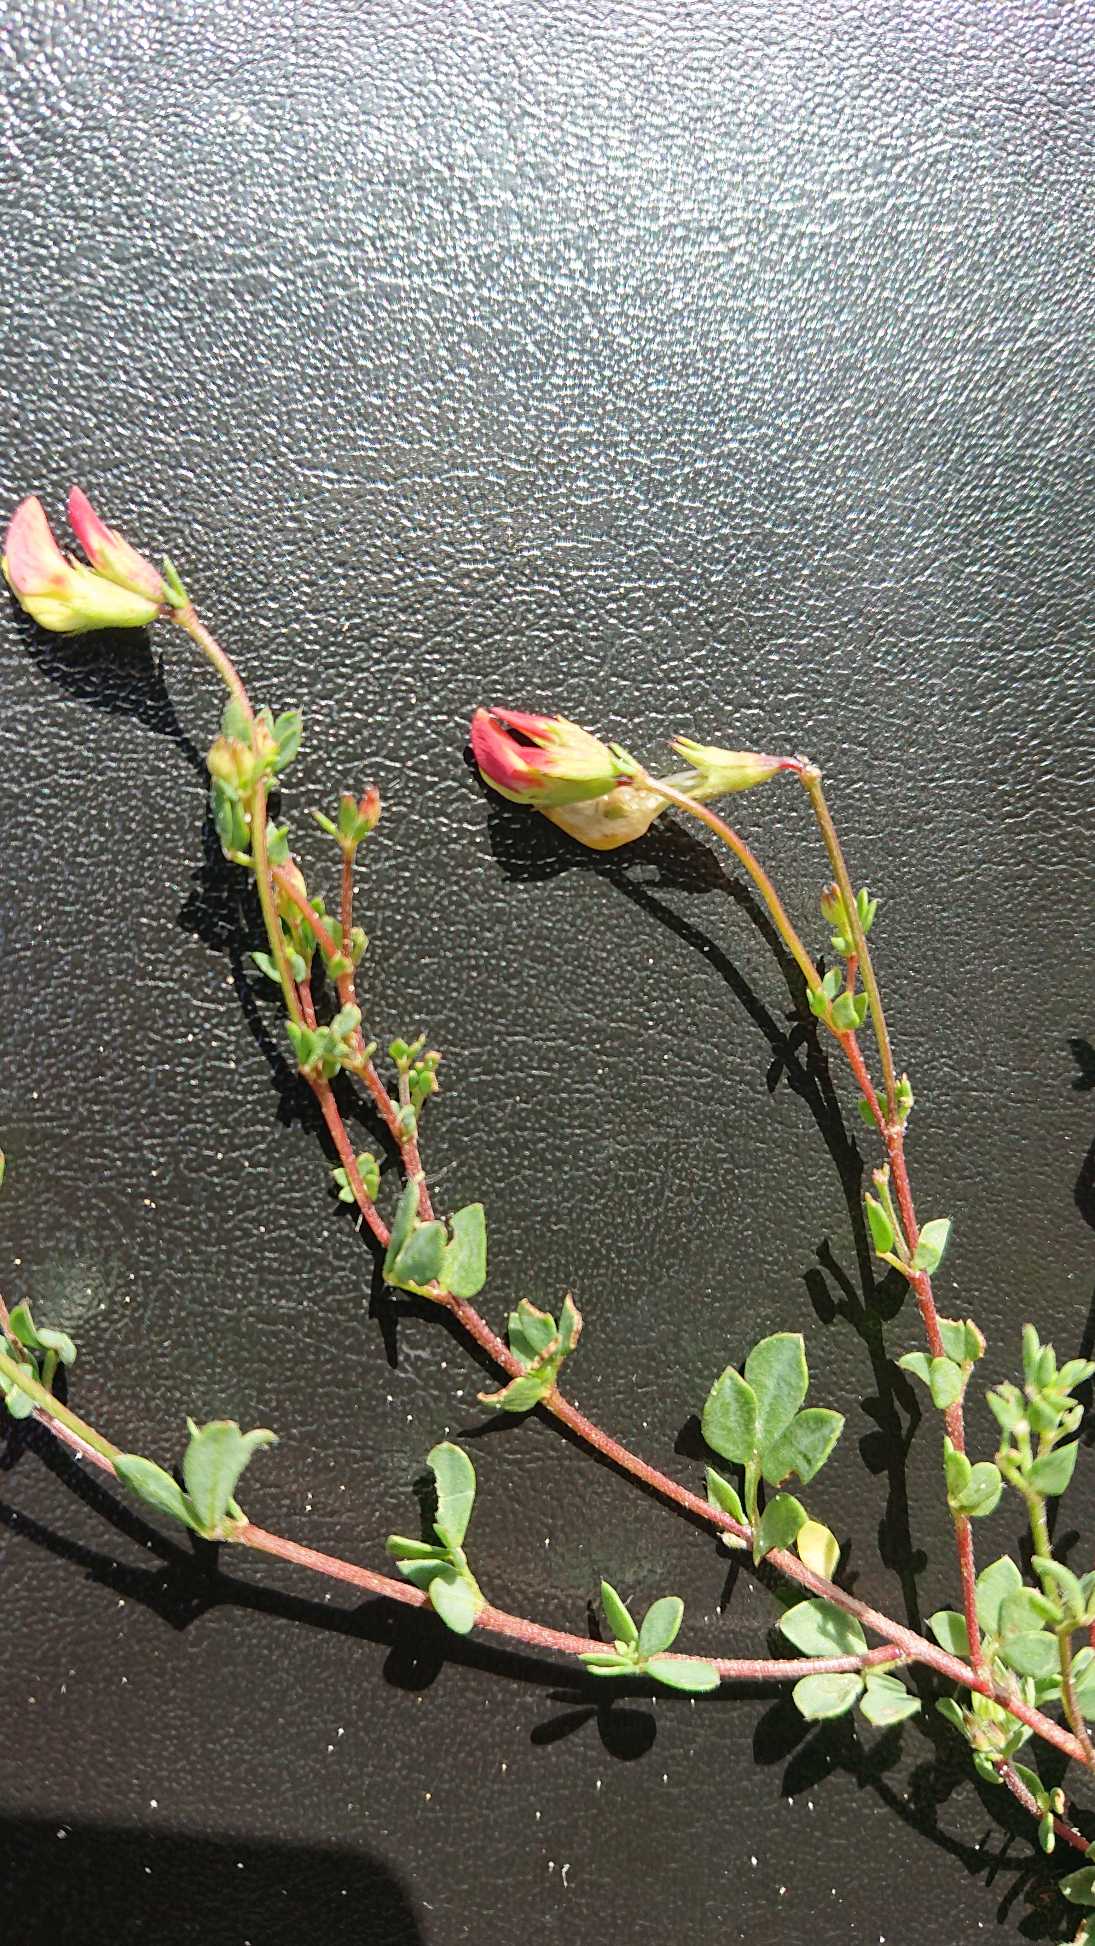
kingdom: Plantae
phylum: Tracheophyta
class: Magnoliopsida
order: Fabales
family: Fabaceae
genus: Lotus
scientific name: Lotus corniculatus
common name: Almindelig kællingetand
